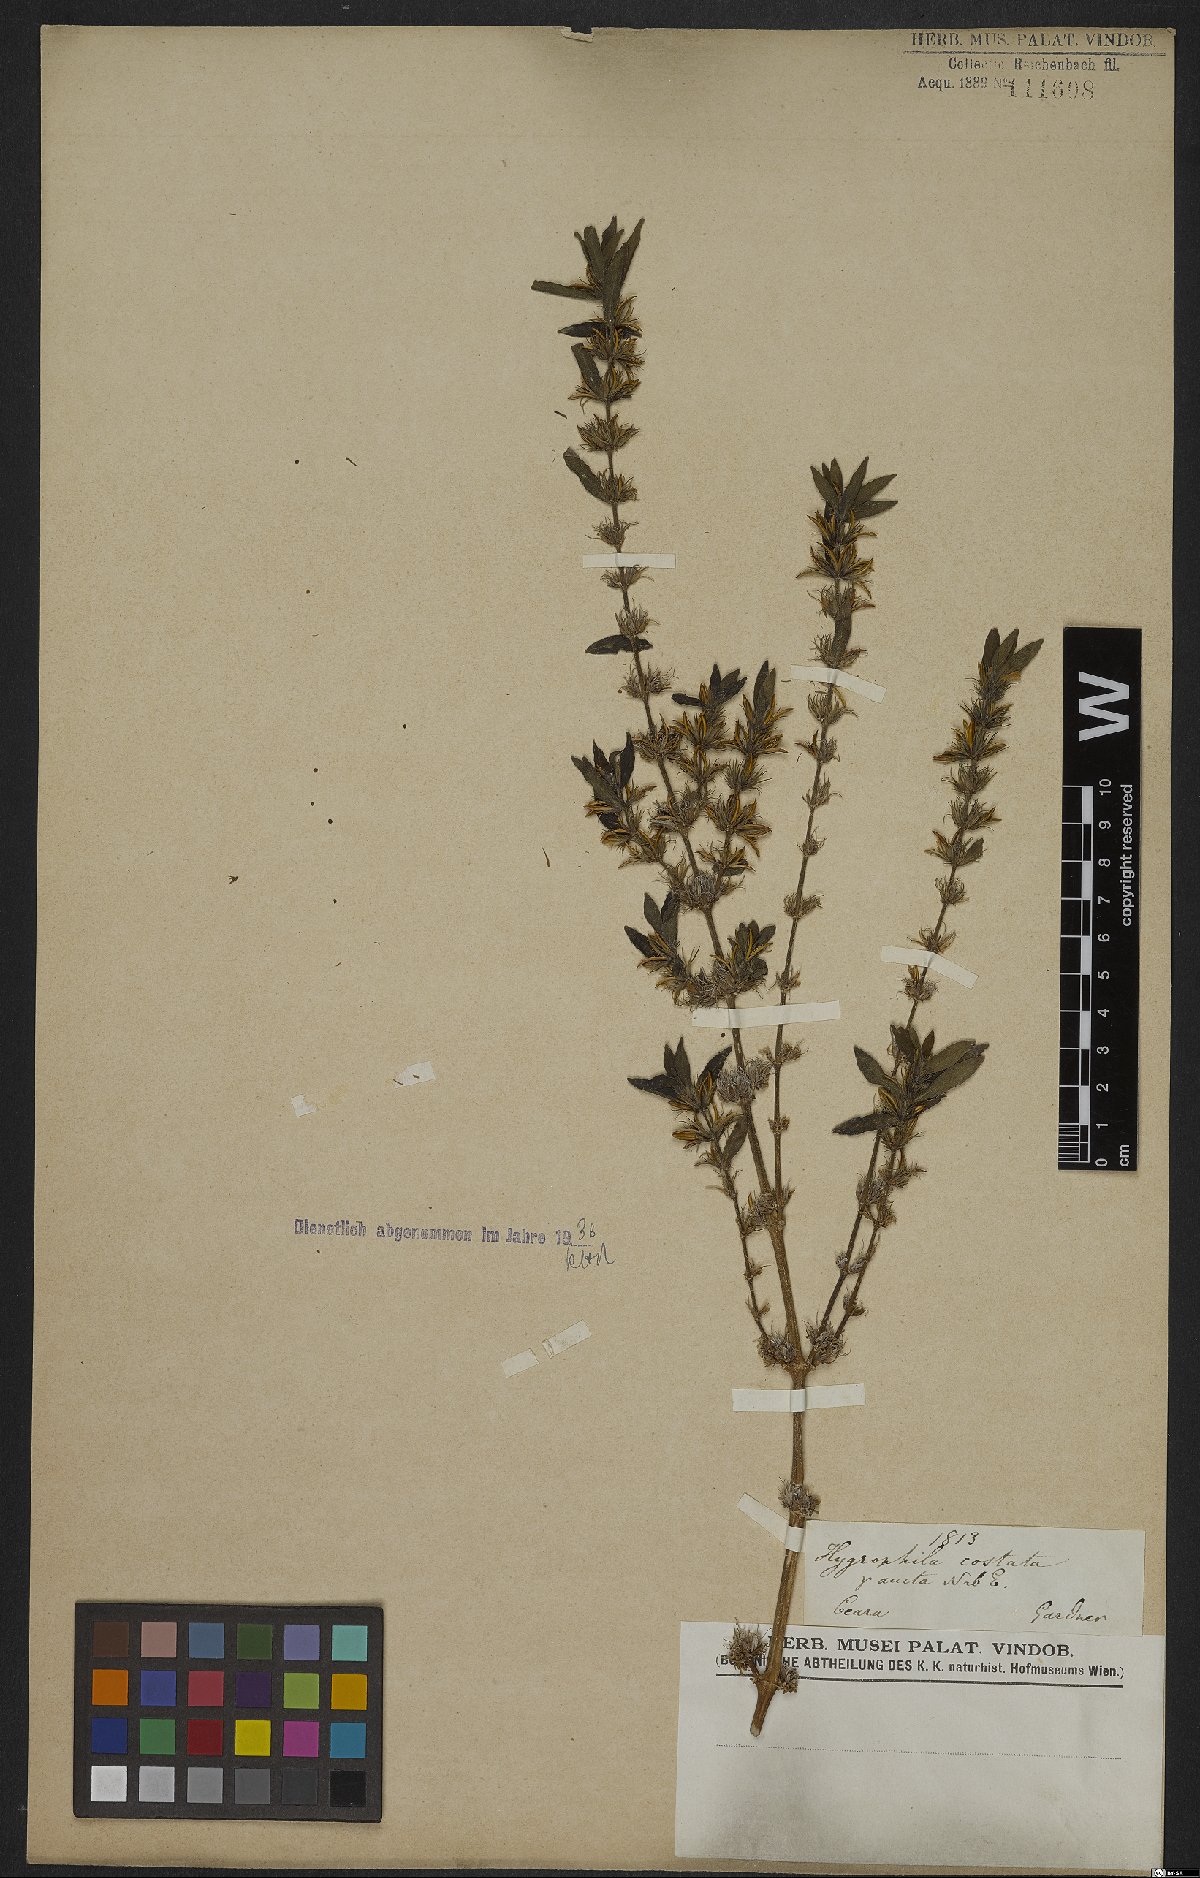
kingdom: Plantae
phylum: Tracheophyta
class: Magnoliopsida
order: Lamiales
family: Acanthaceae
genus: Hygrophila
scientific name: Hygrophila costata
